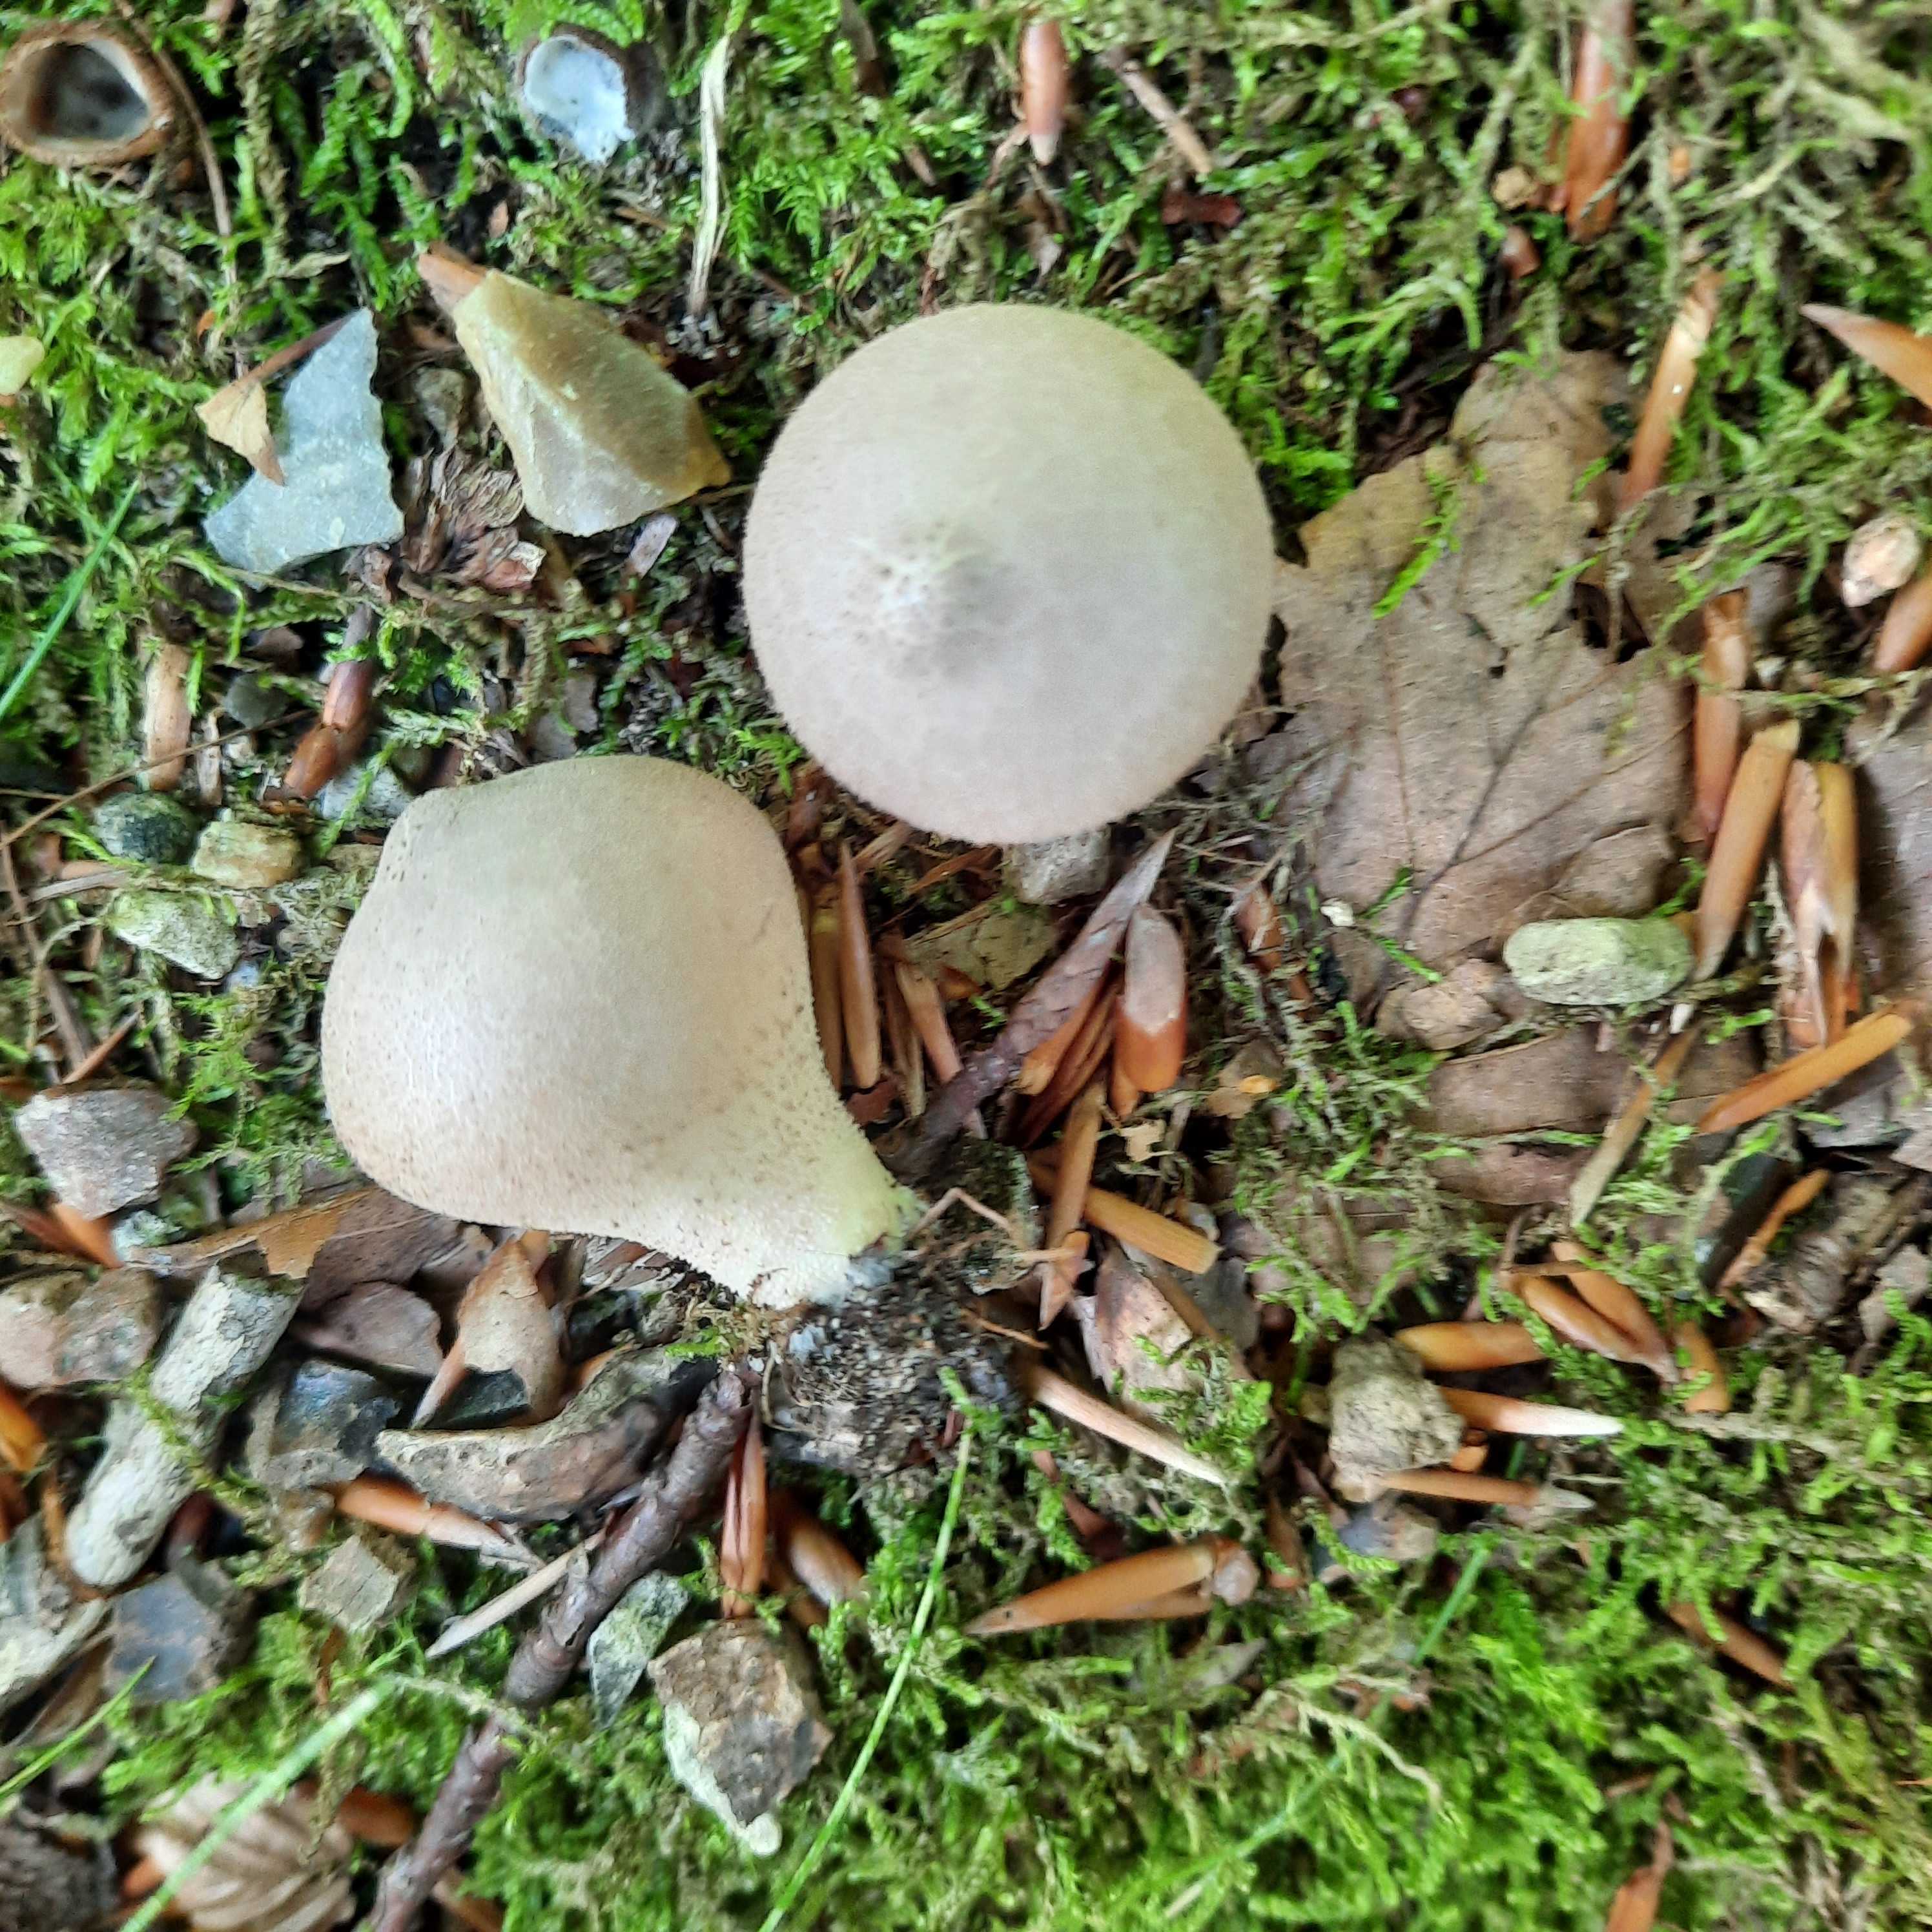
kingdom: Fungi
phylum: Basidiomycota
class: Agaricomycetes
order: Agaricales
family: Lycoperdaceae
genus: Apioperdon
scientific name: Apioperdon pyriforme
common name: pære-støvbold
